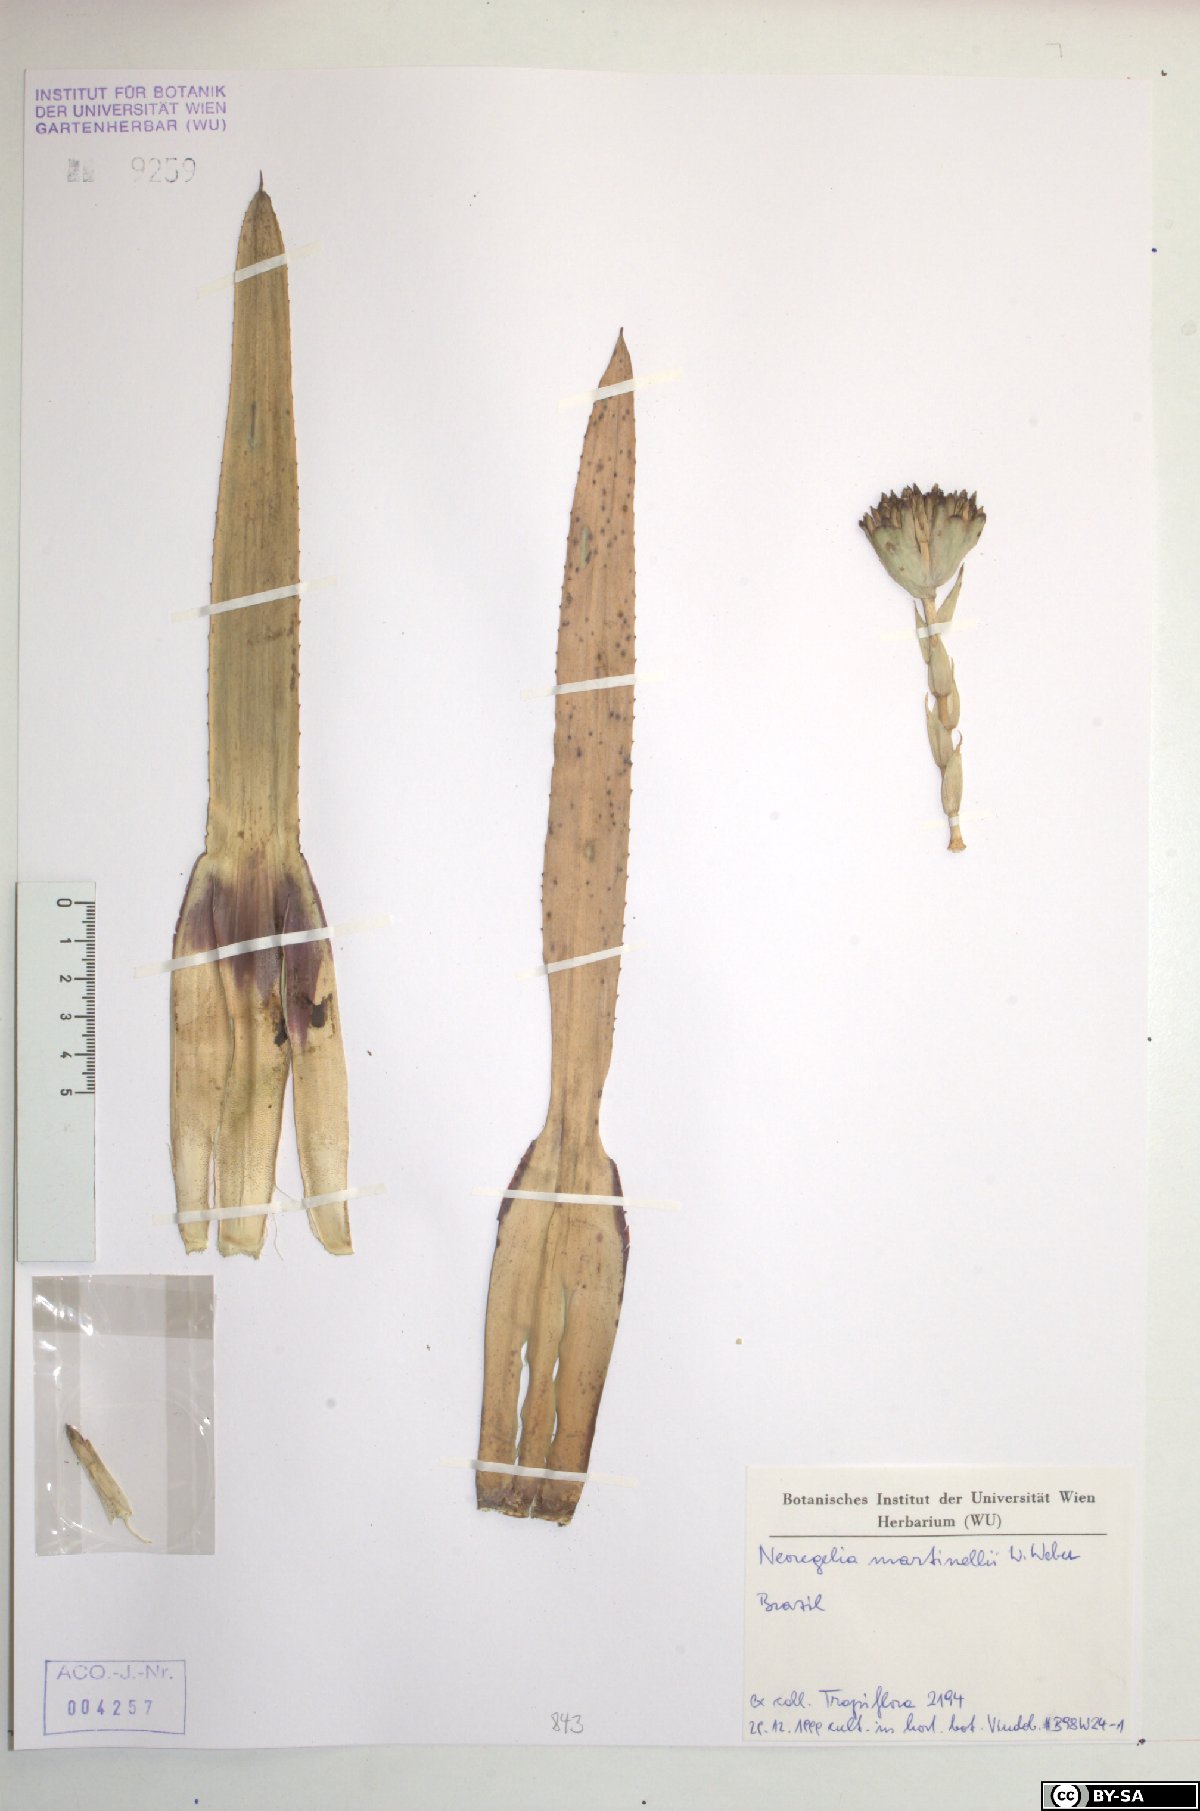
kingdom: Plantae
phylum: Tracheophyta
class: Liliopsida
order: Poales
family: Bromeliaceae
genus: Neoregelia
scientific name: Neoregelia martinellii
